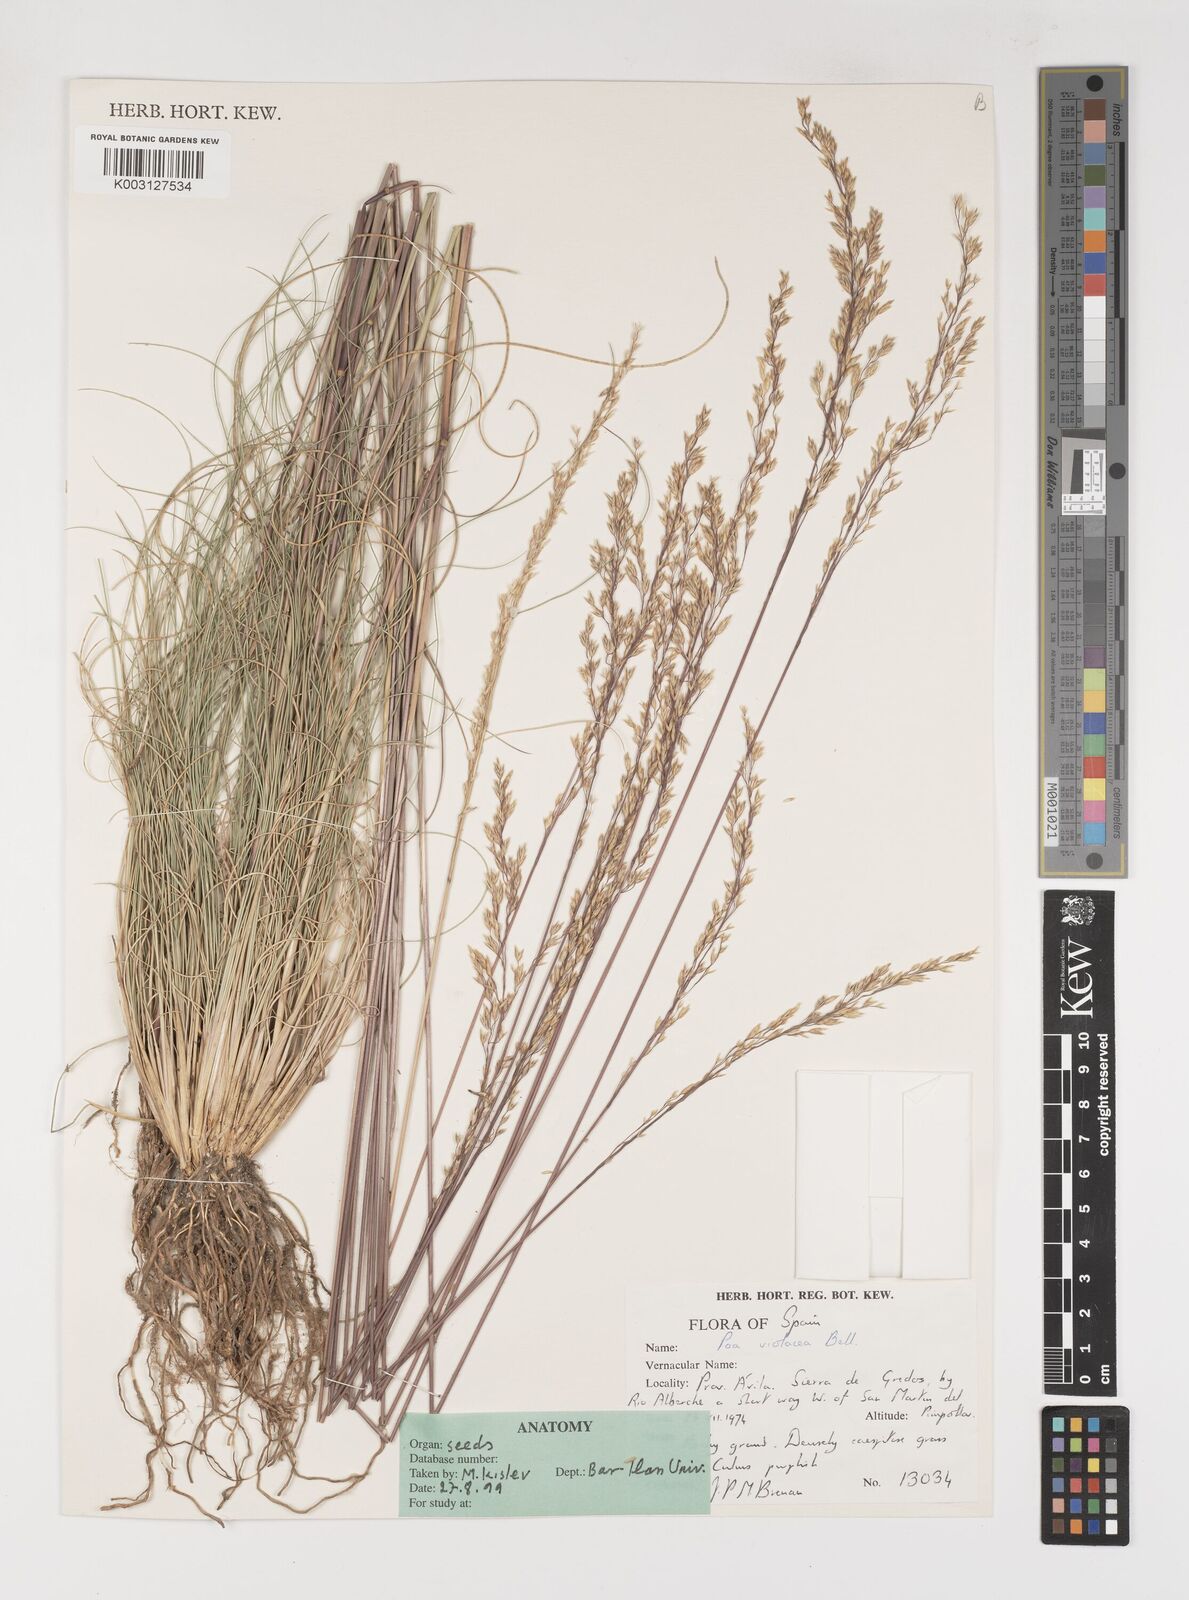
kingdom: Plantae
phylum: Tracheophyta
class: Liliopsida
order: Poales
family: Poaceae
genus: Bellardiochloa
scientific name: Bellardiochloa variegata
